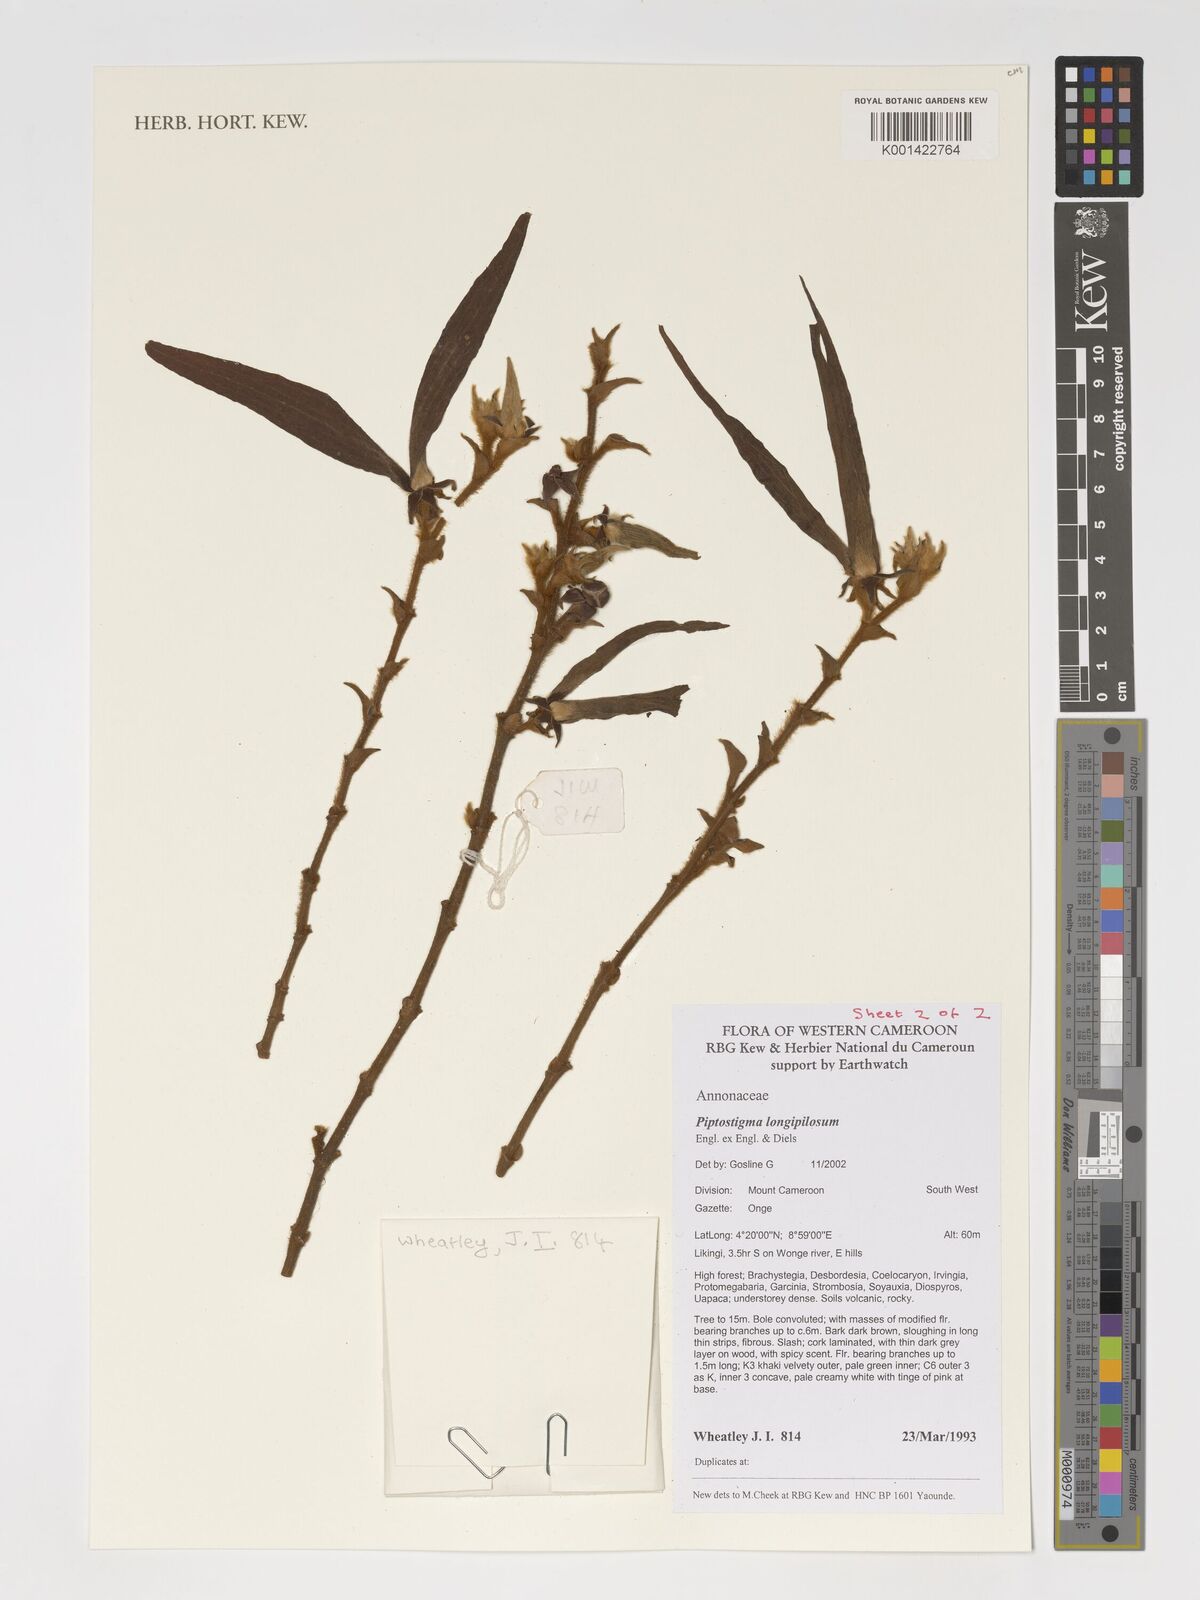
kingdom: Plantae
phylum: Tracheophyta
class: Magnoliopsida
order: Magnoliales
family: Annonaceae
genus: Piptostigma
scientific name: Piptostigma longepilosum
